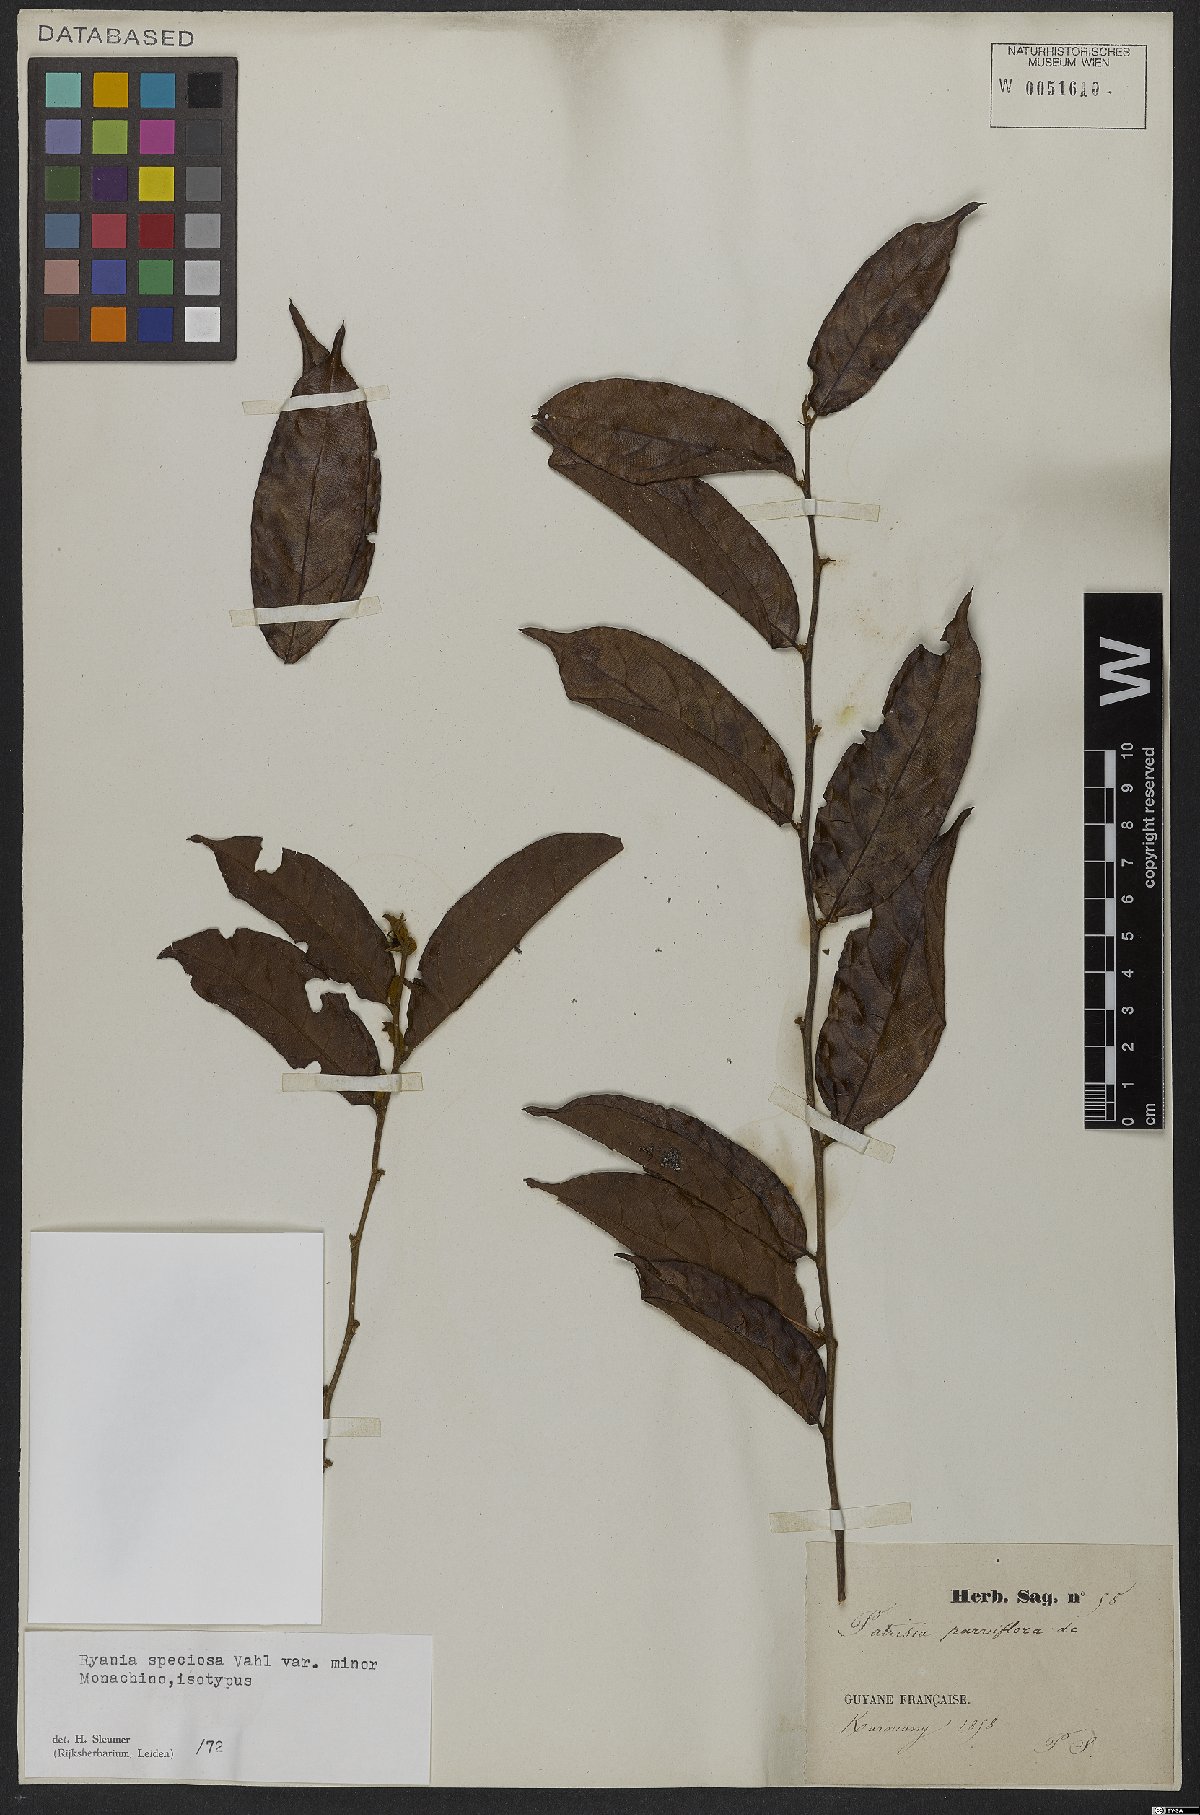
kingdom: Plantae
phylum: Tracheophyta
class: Magnoliopsida
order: Malpighiales
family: Salicaceae
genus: Ryania
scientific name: Ryania speciosa
